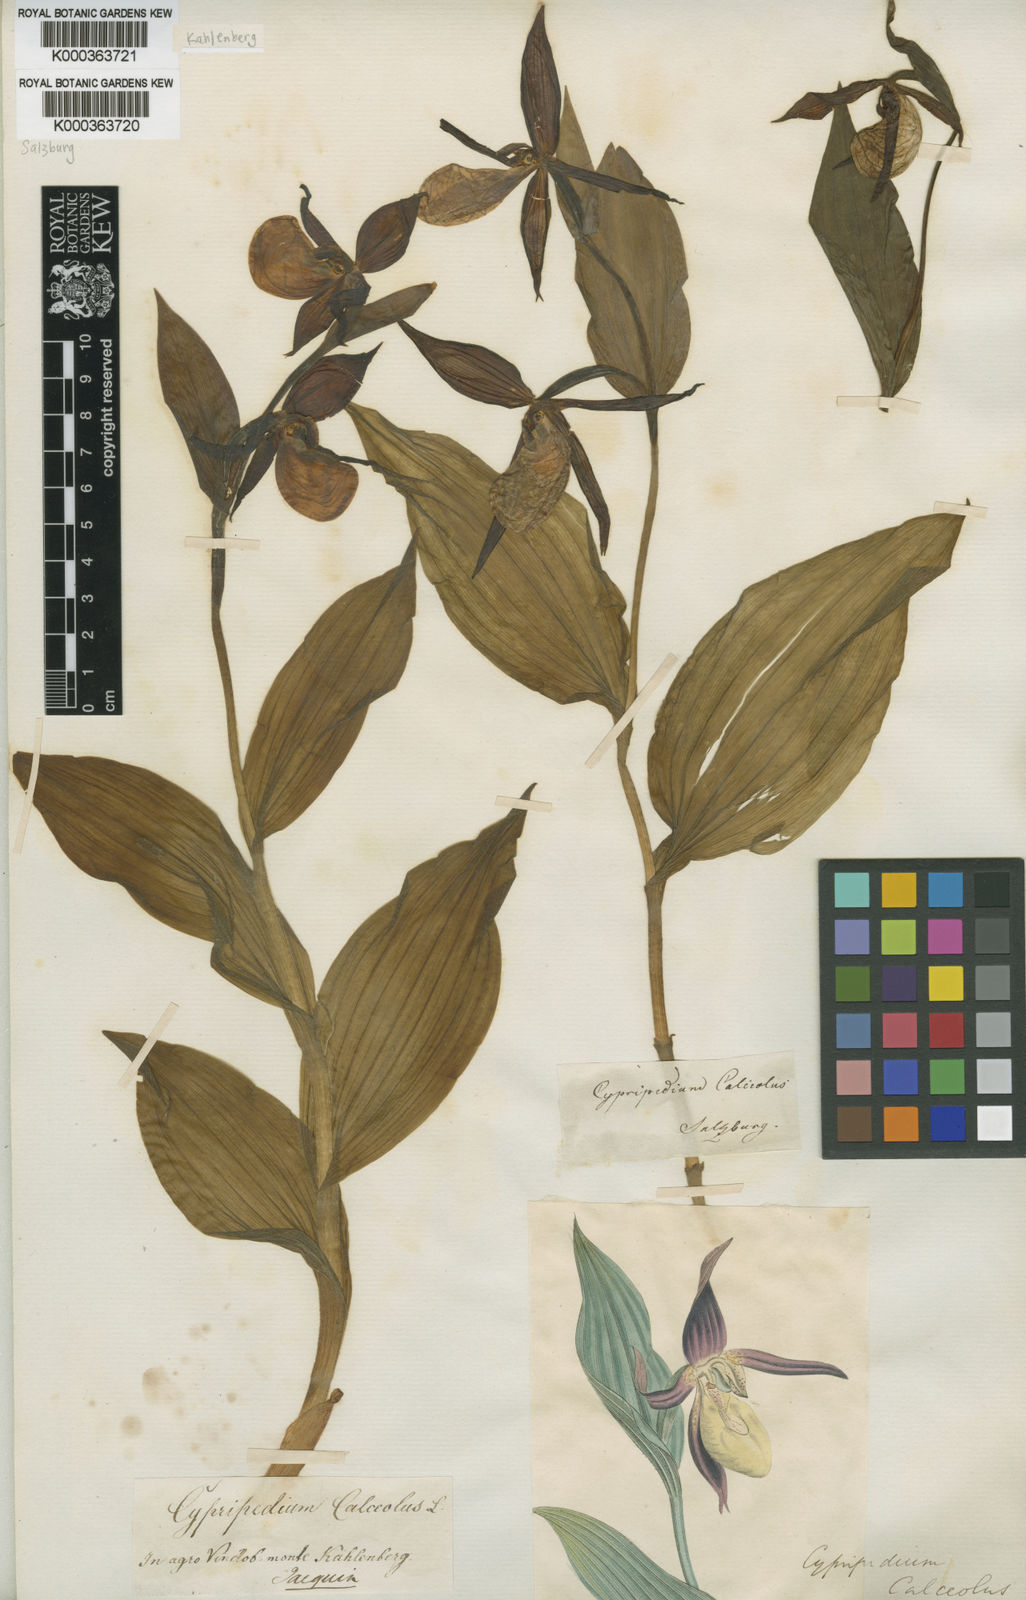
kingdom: Plantae
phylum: Tracheophyta
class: Liliopsida
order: Asparagales
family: Orchidaceae
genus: Cypripedium
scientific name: Cypripedium calceolus
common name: Lady's-slipper
